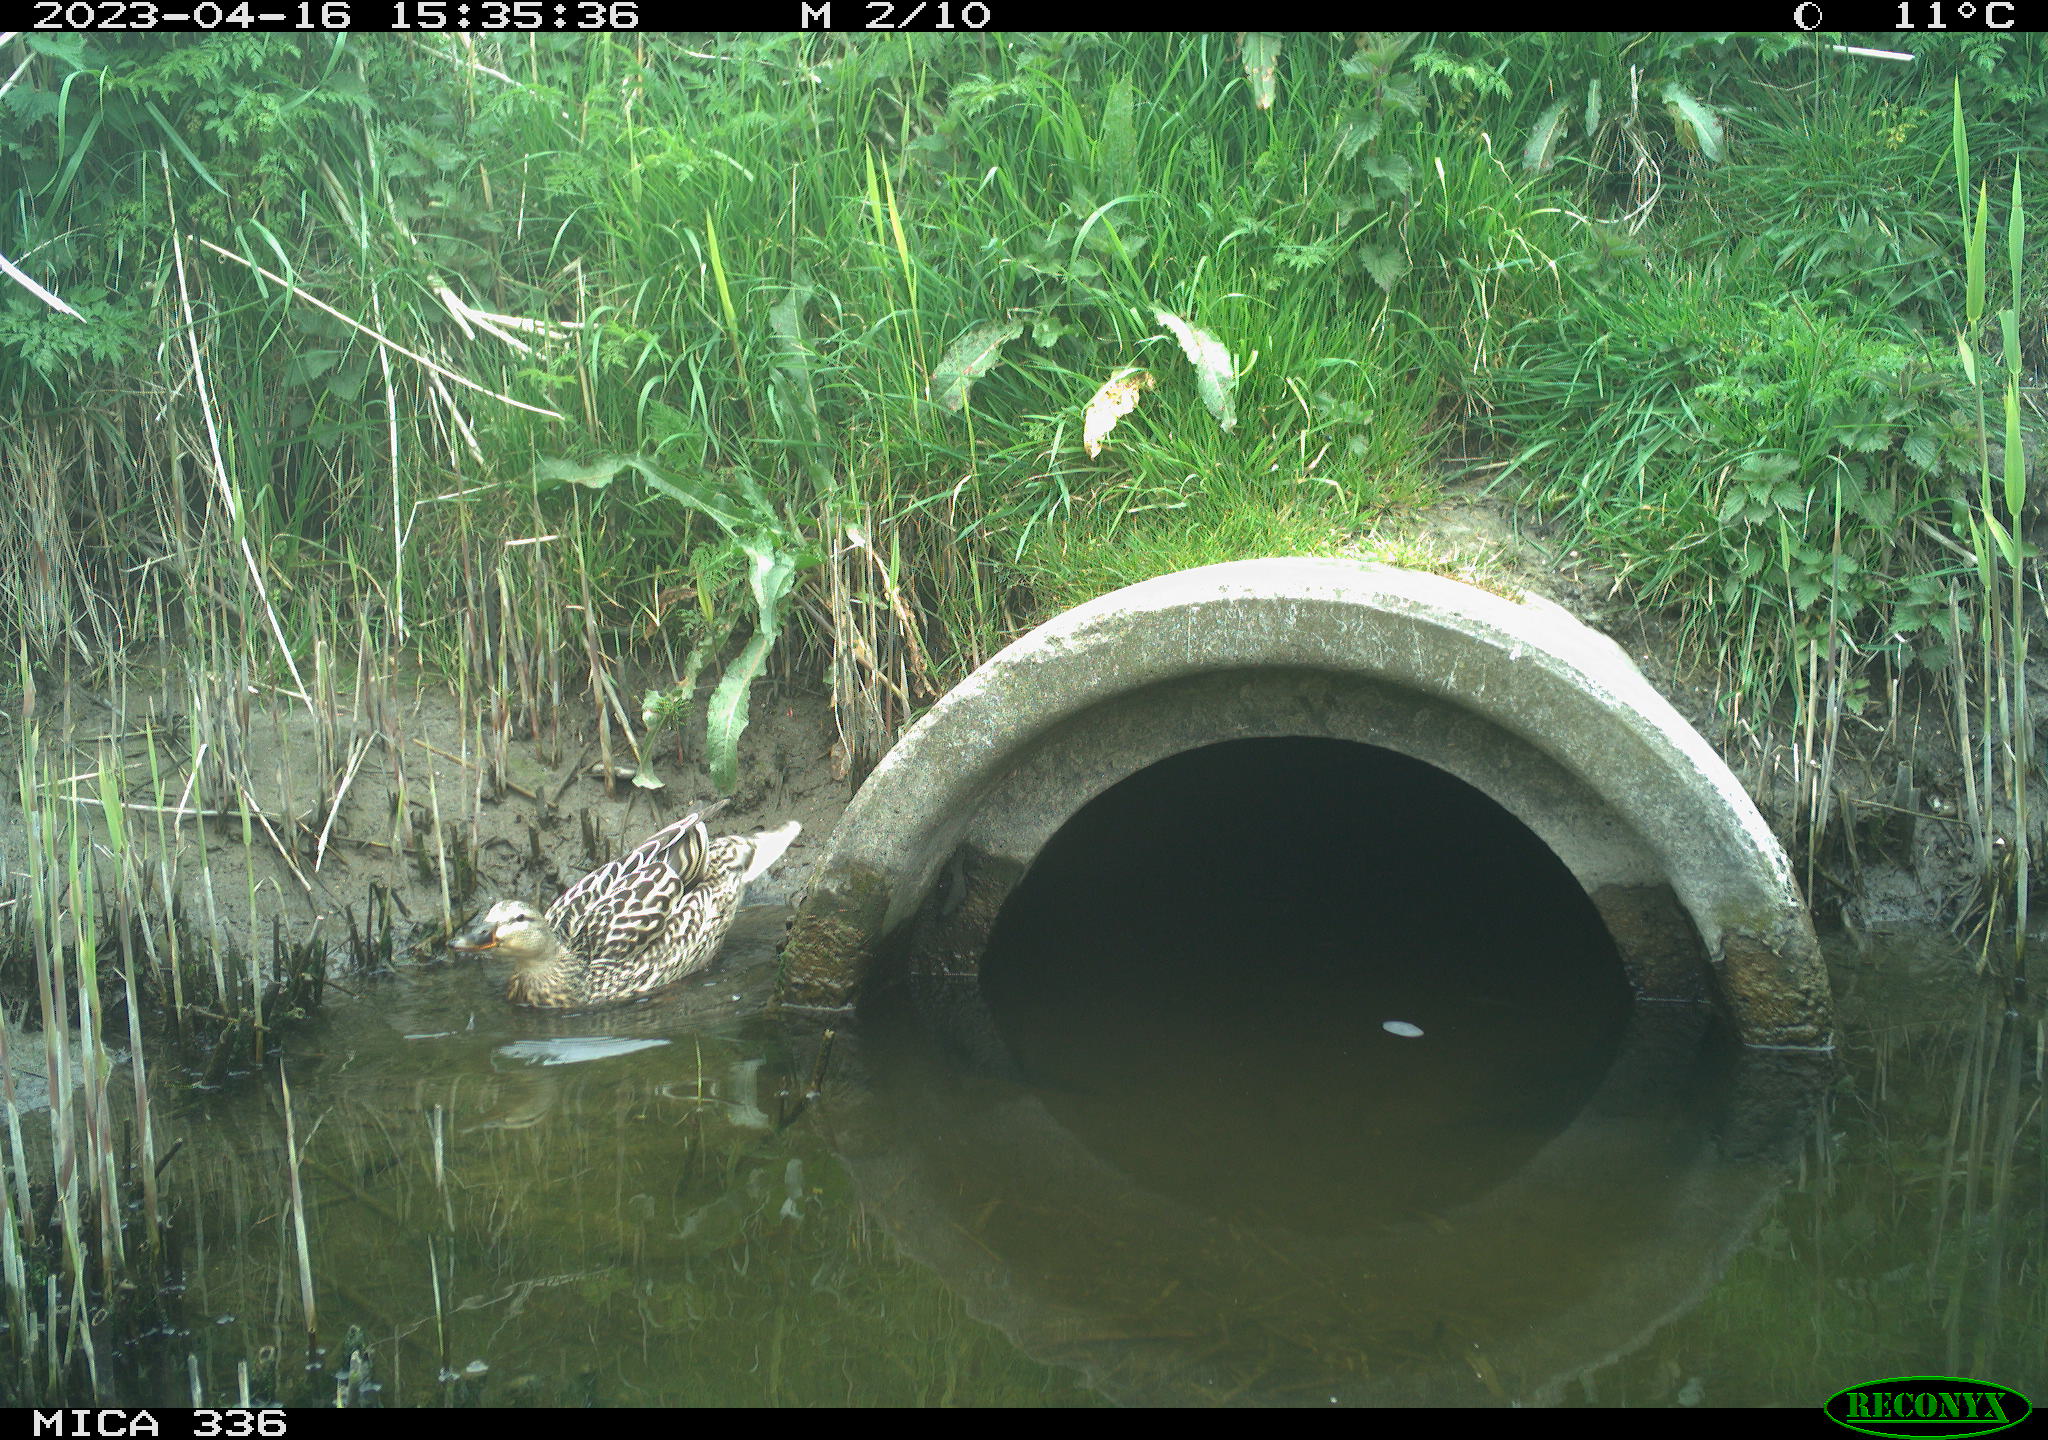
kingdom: Animalia
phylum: Chordata
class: Aves
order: Anseriformes
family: Anatidae
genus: Anas
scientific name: Anas
